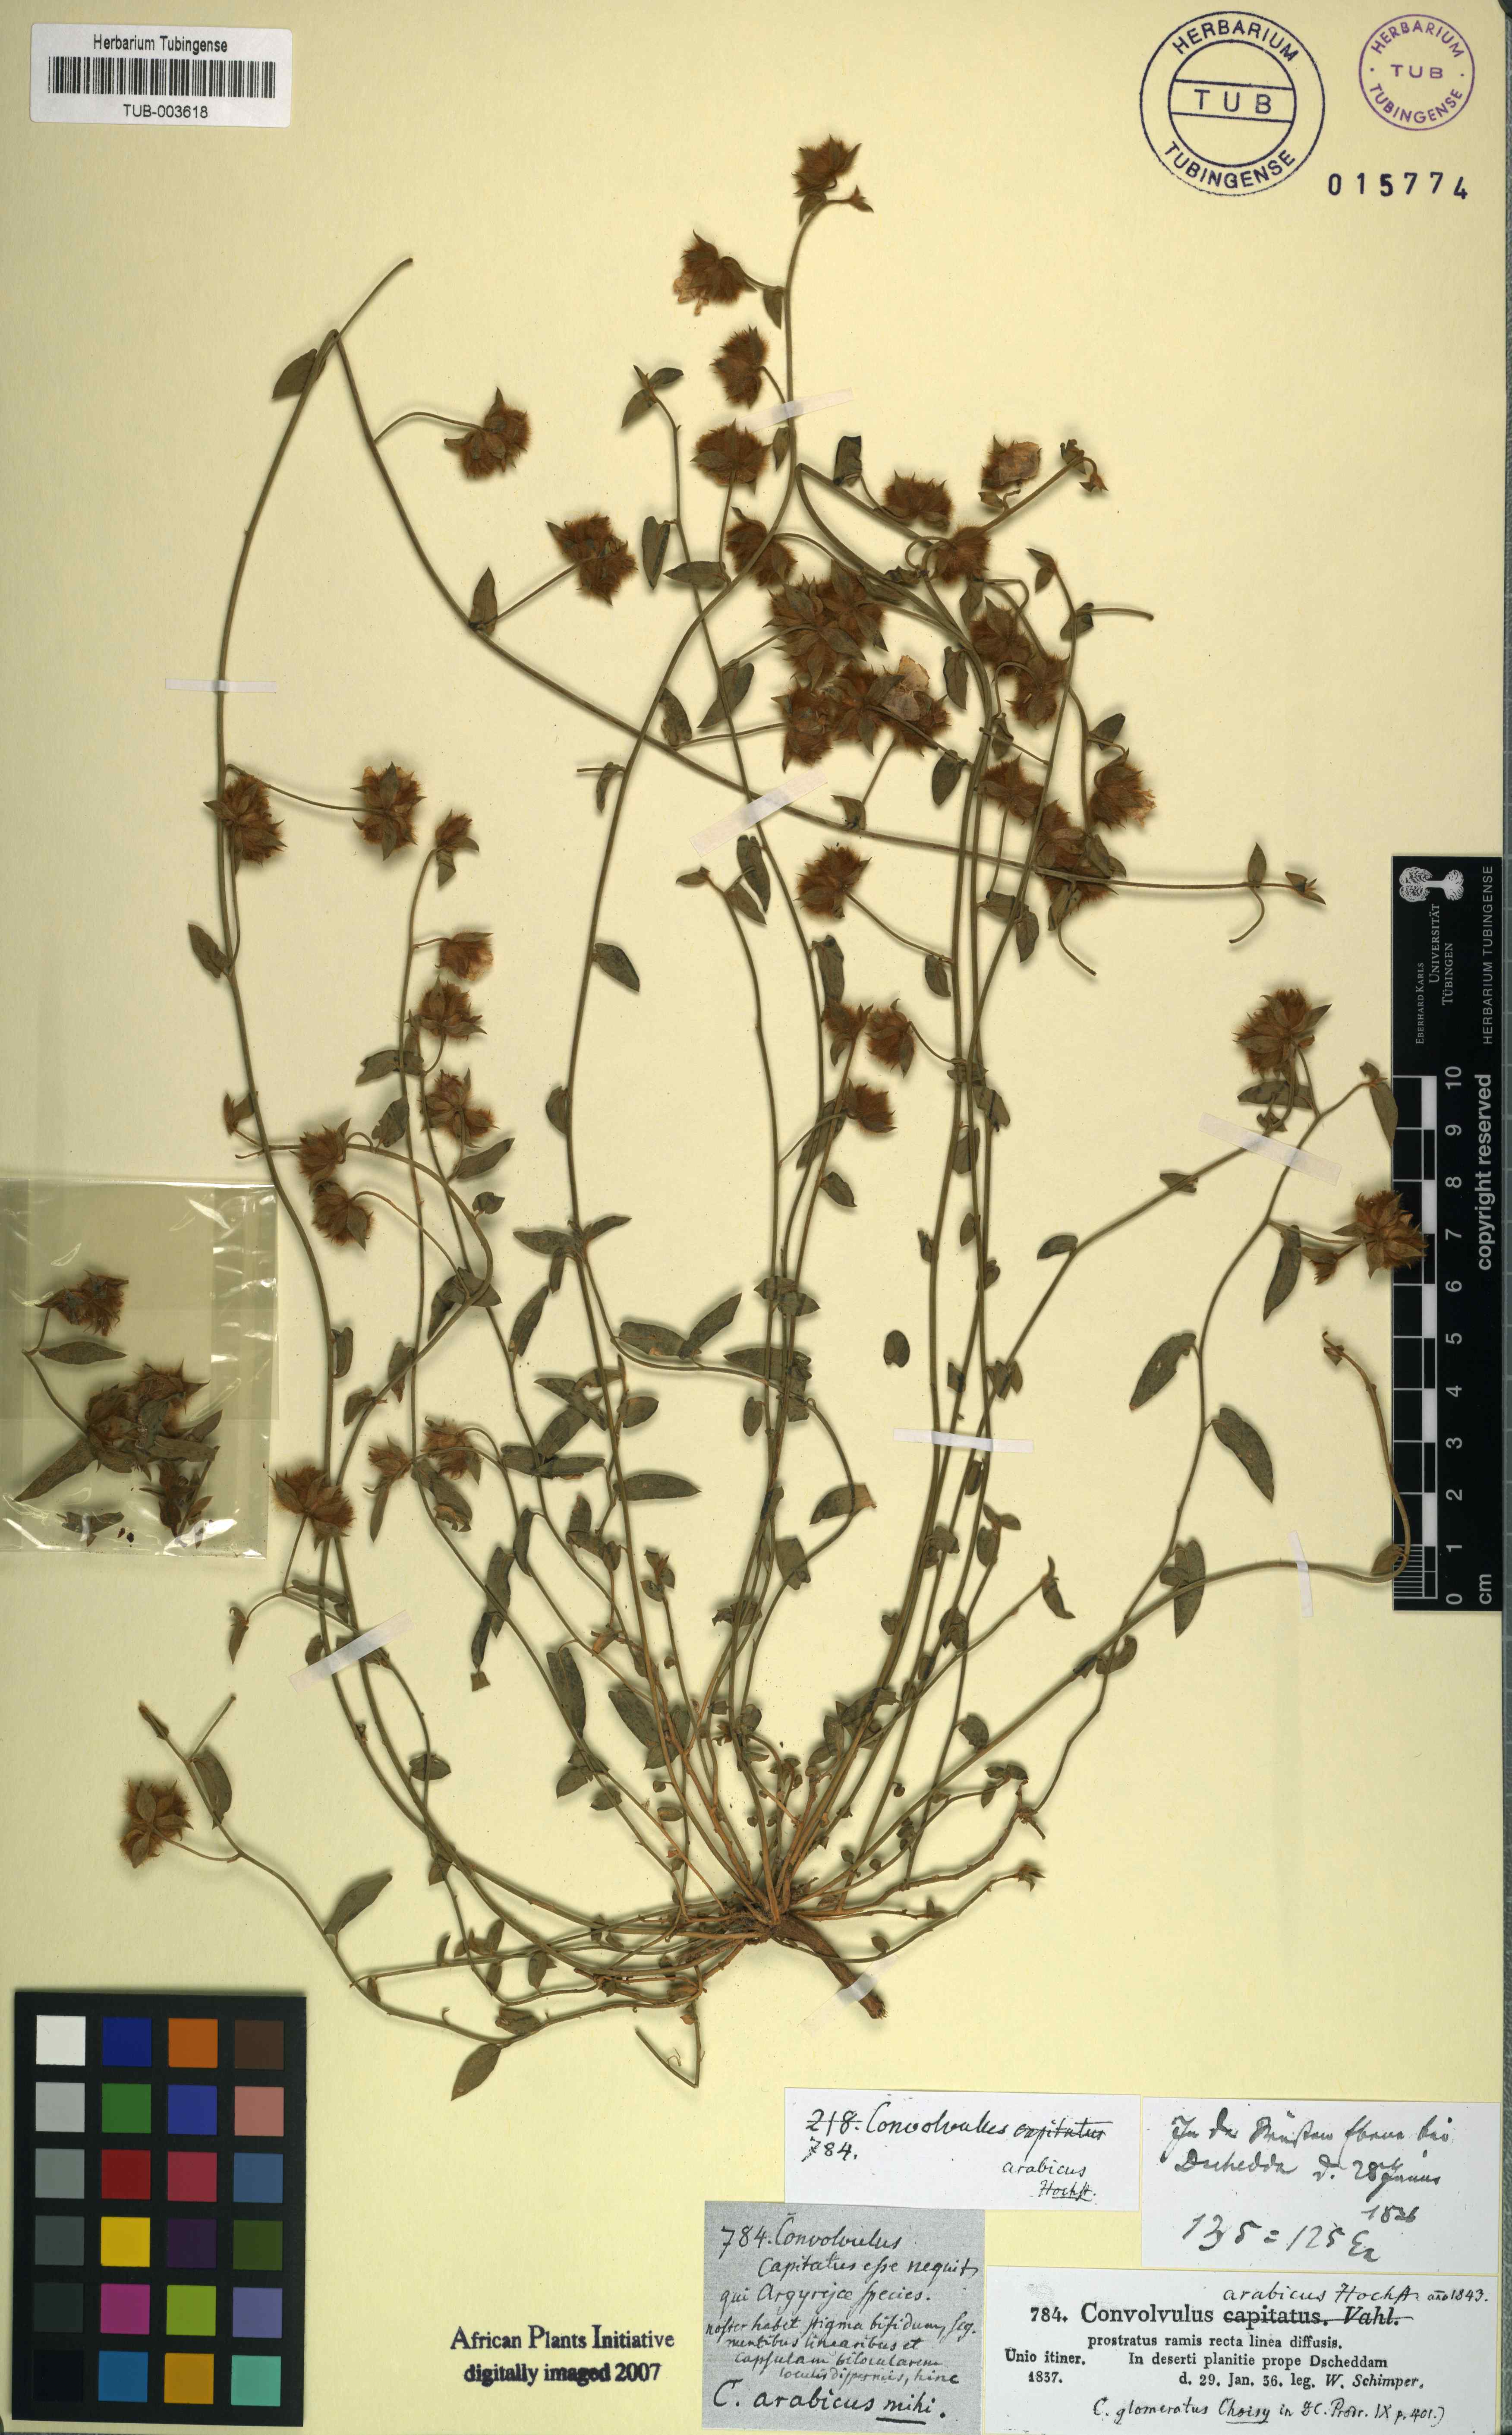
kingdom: Plantae
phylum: Tracheophyta
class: Magnoliopsida
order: Solanales
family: Convolvulaceae
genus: Convolvulus
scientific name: Convolvulus glomeratus
